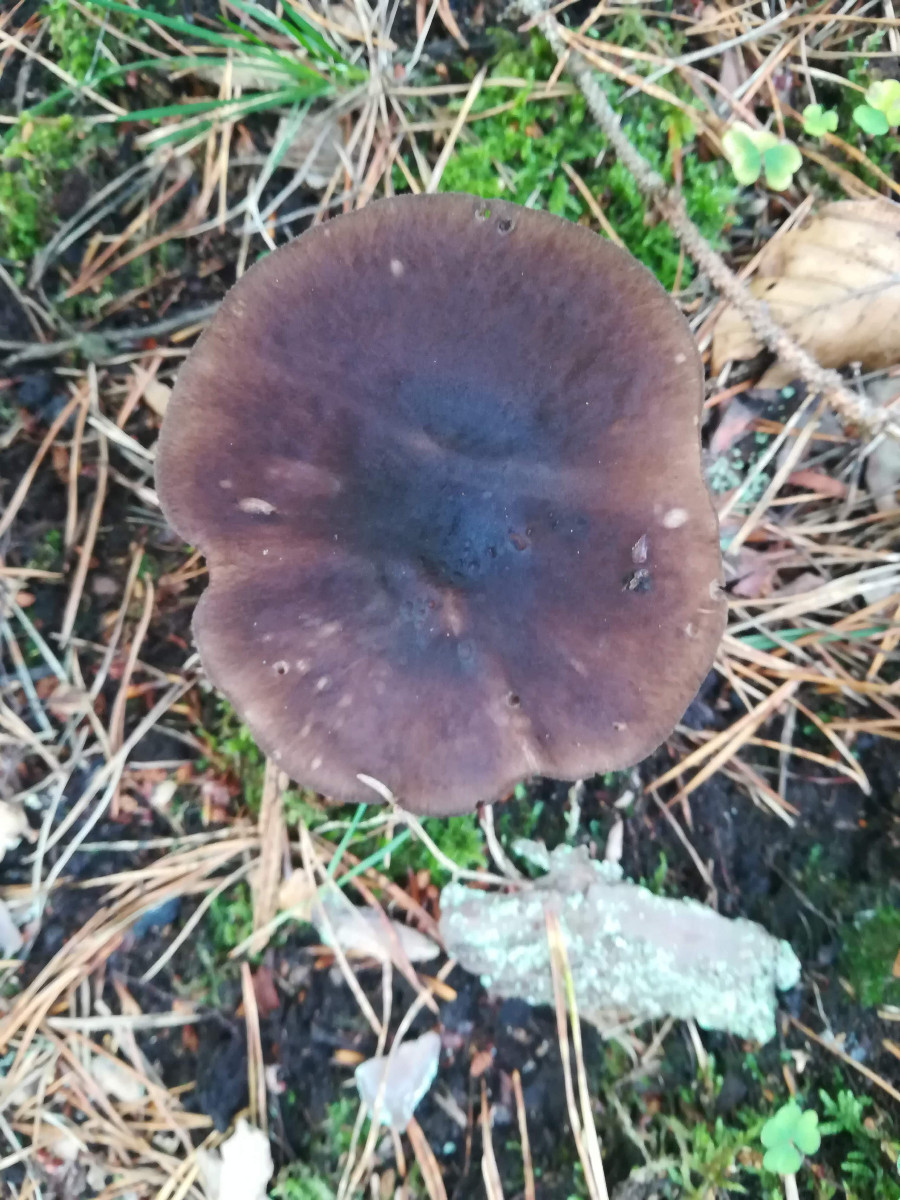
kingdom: Fungi
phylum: Basidiomycota
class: Agaricomycetes
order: Agaricales
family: Pluteaceae
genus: Pluteus
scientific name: Pluteus atromarginatus
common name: sortrandet skærmhat
